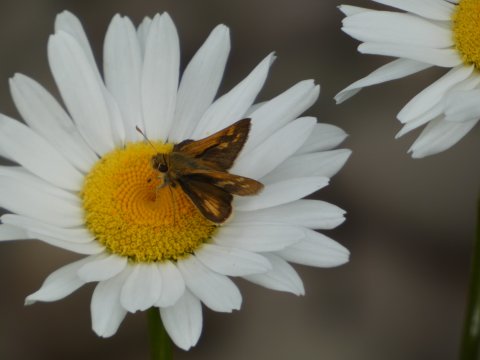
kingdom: Animalia
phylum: Arthropoda
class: Insecta
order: Lepidoptera
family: Hesperiidae
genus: Polites
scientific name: Polites coras
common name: Peck's Skipper
